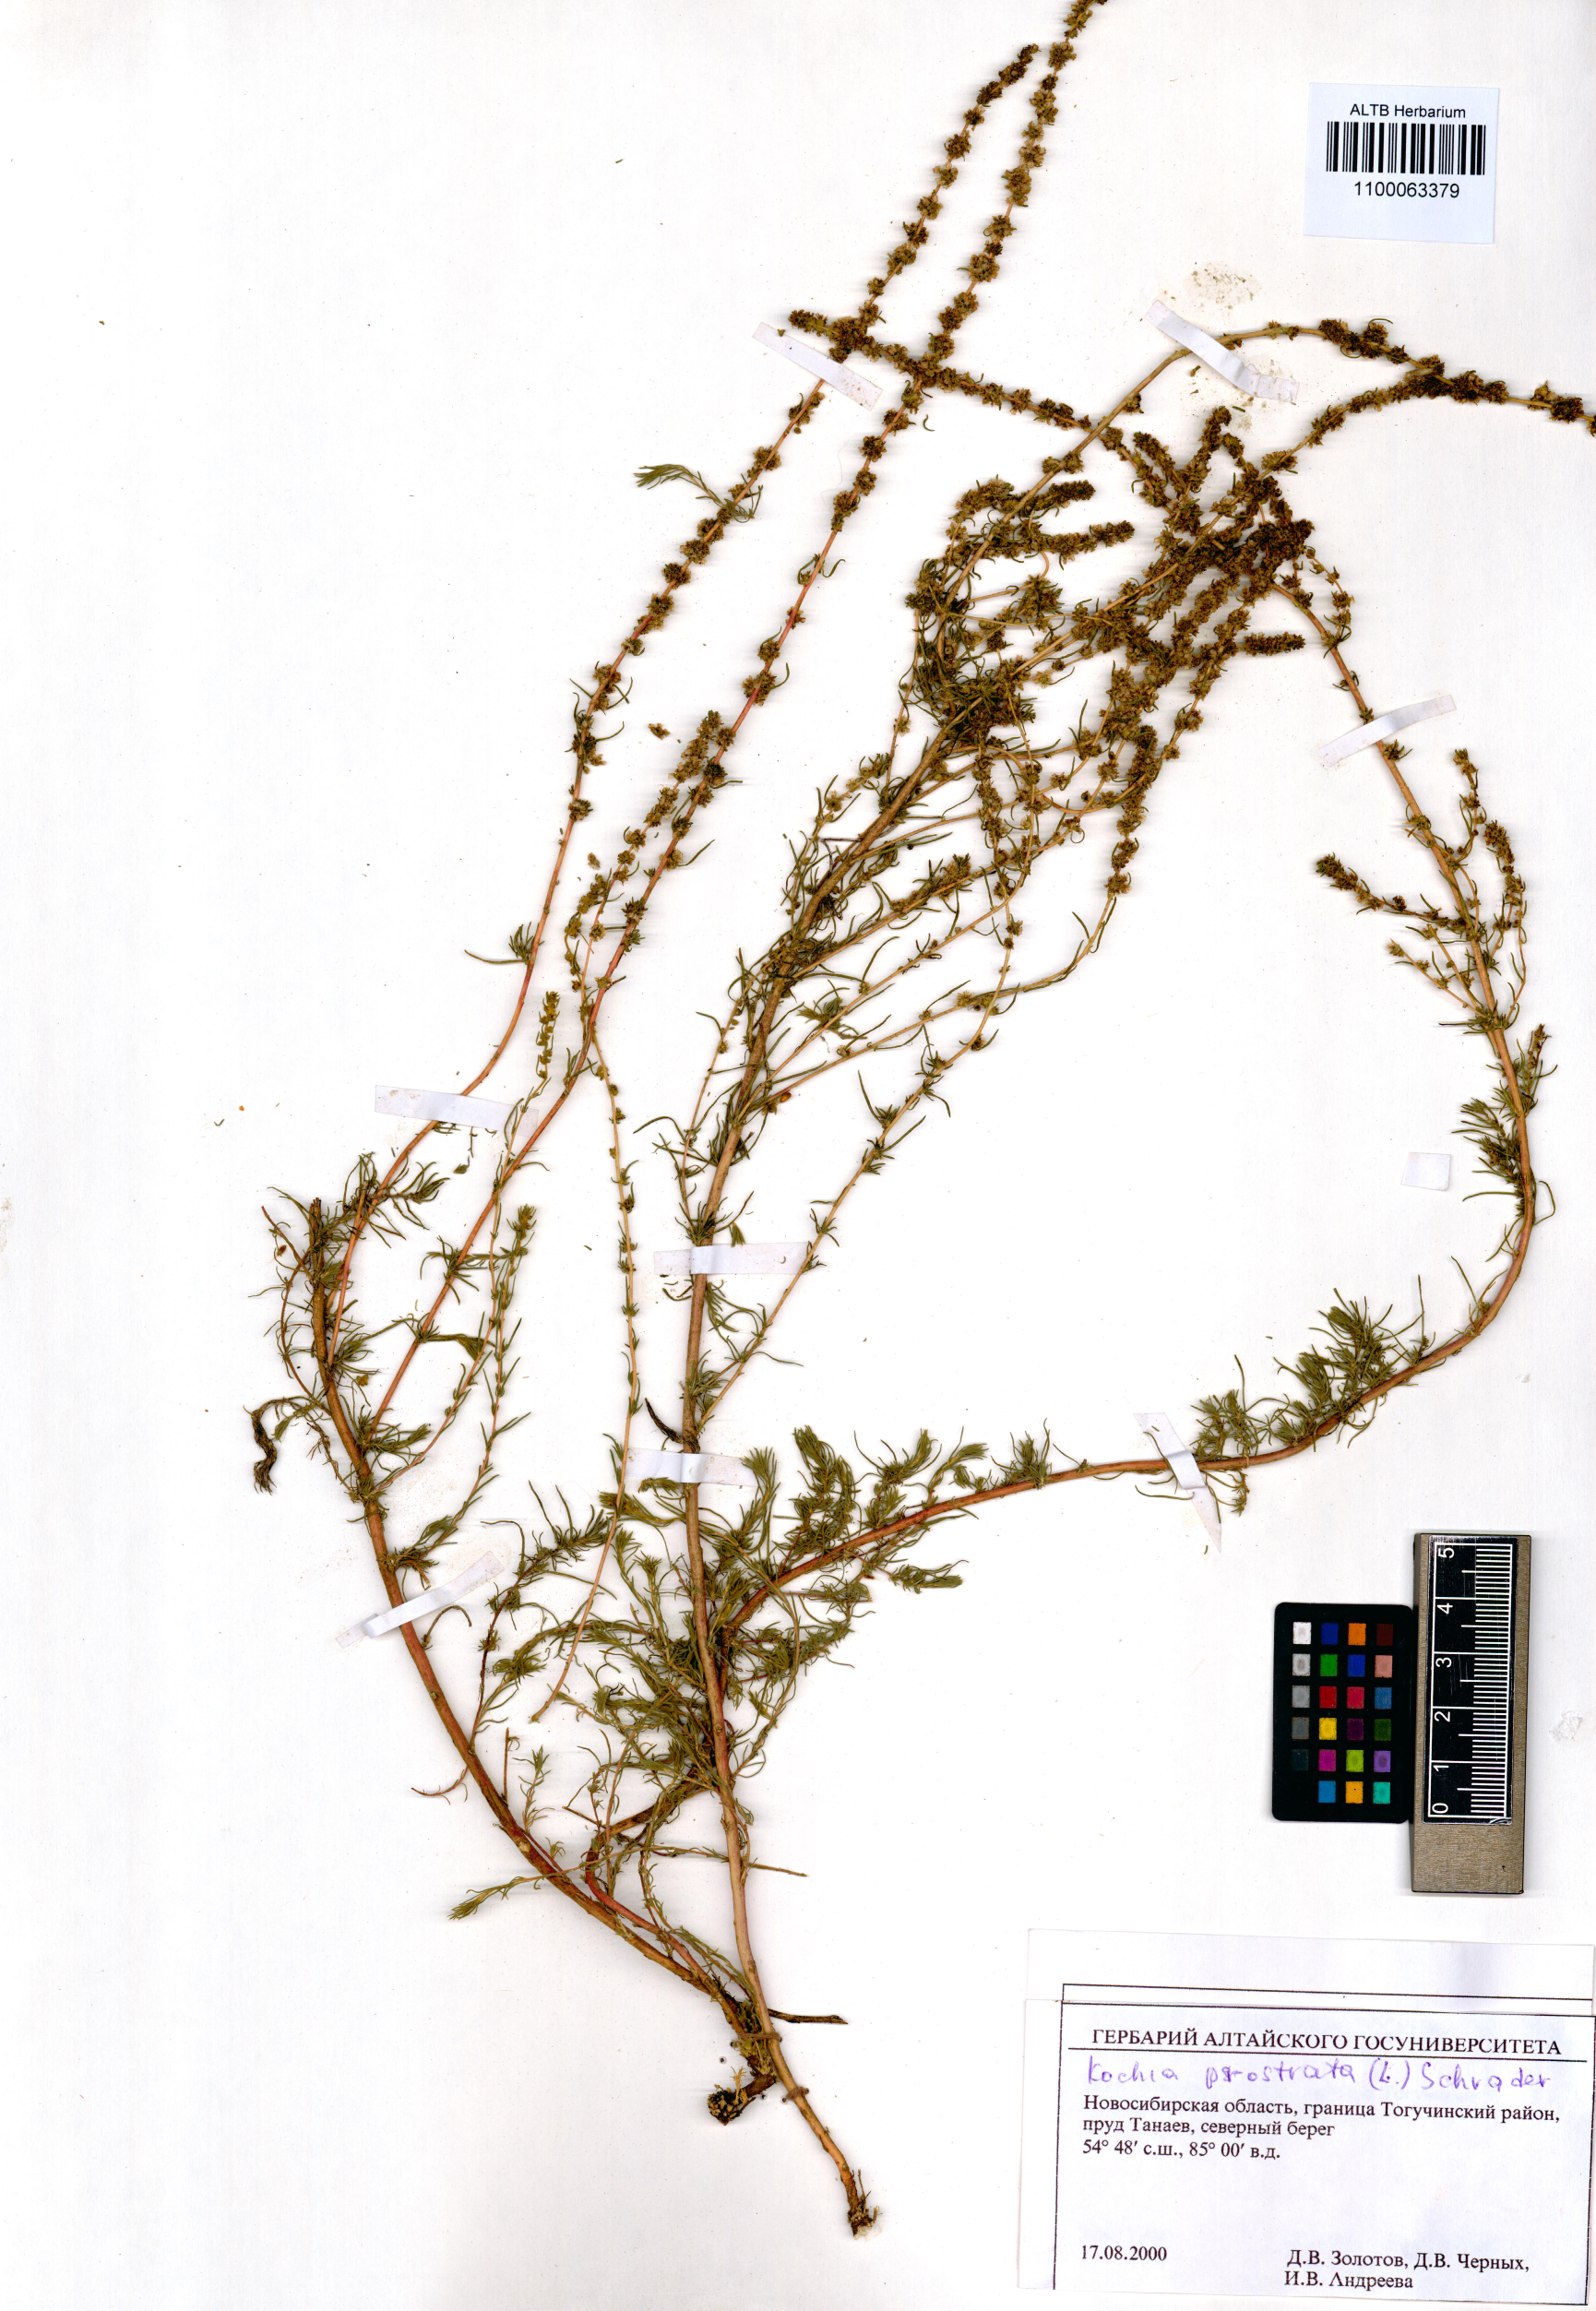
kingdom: Plantae
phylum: Tracheophyta
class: Magnoliopsida
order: Caryophyllales
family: Amaranthaceae
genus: Bassia
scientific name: Bassia prostrata
